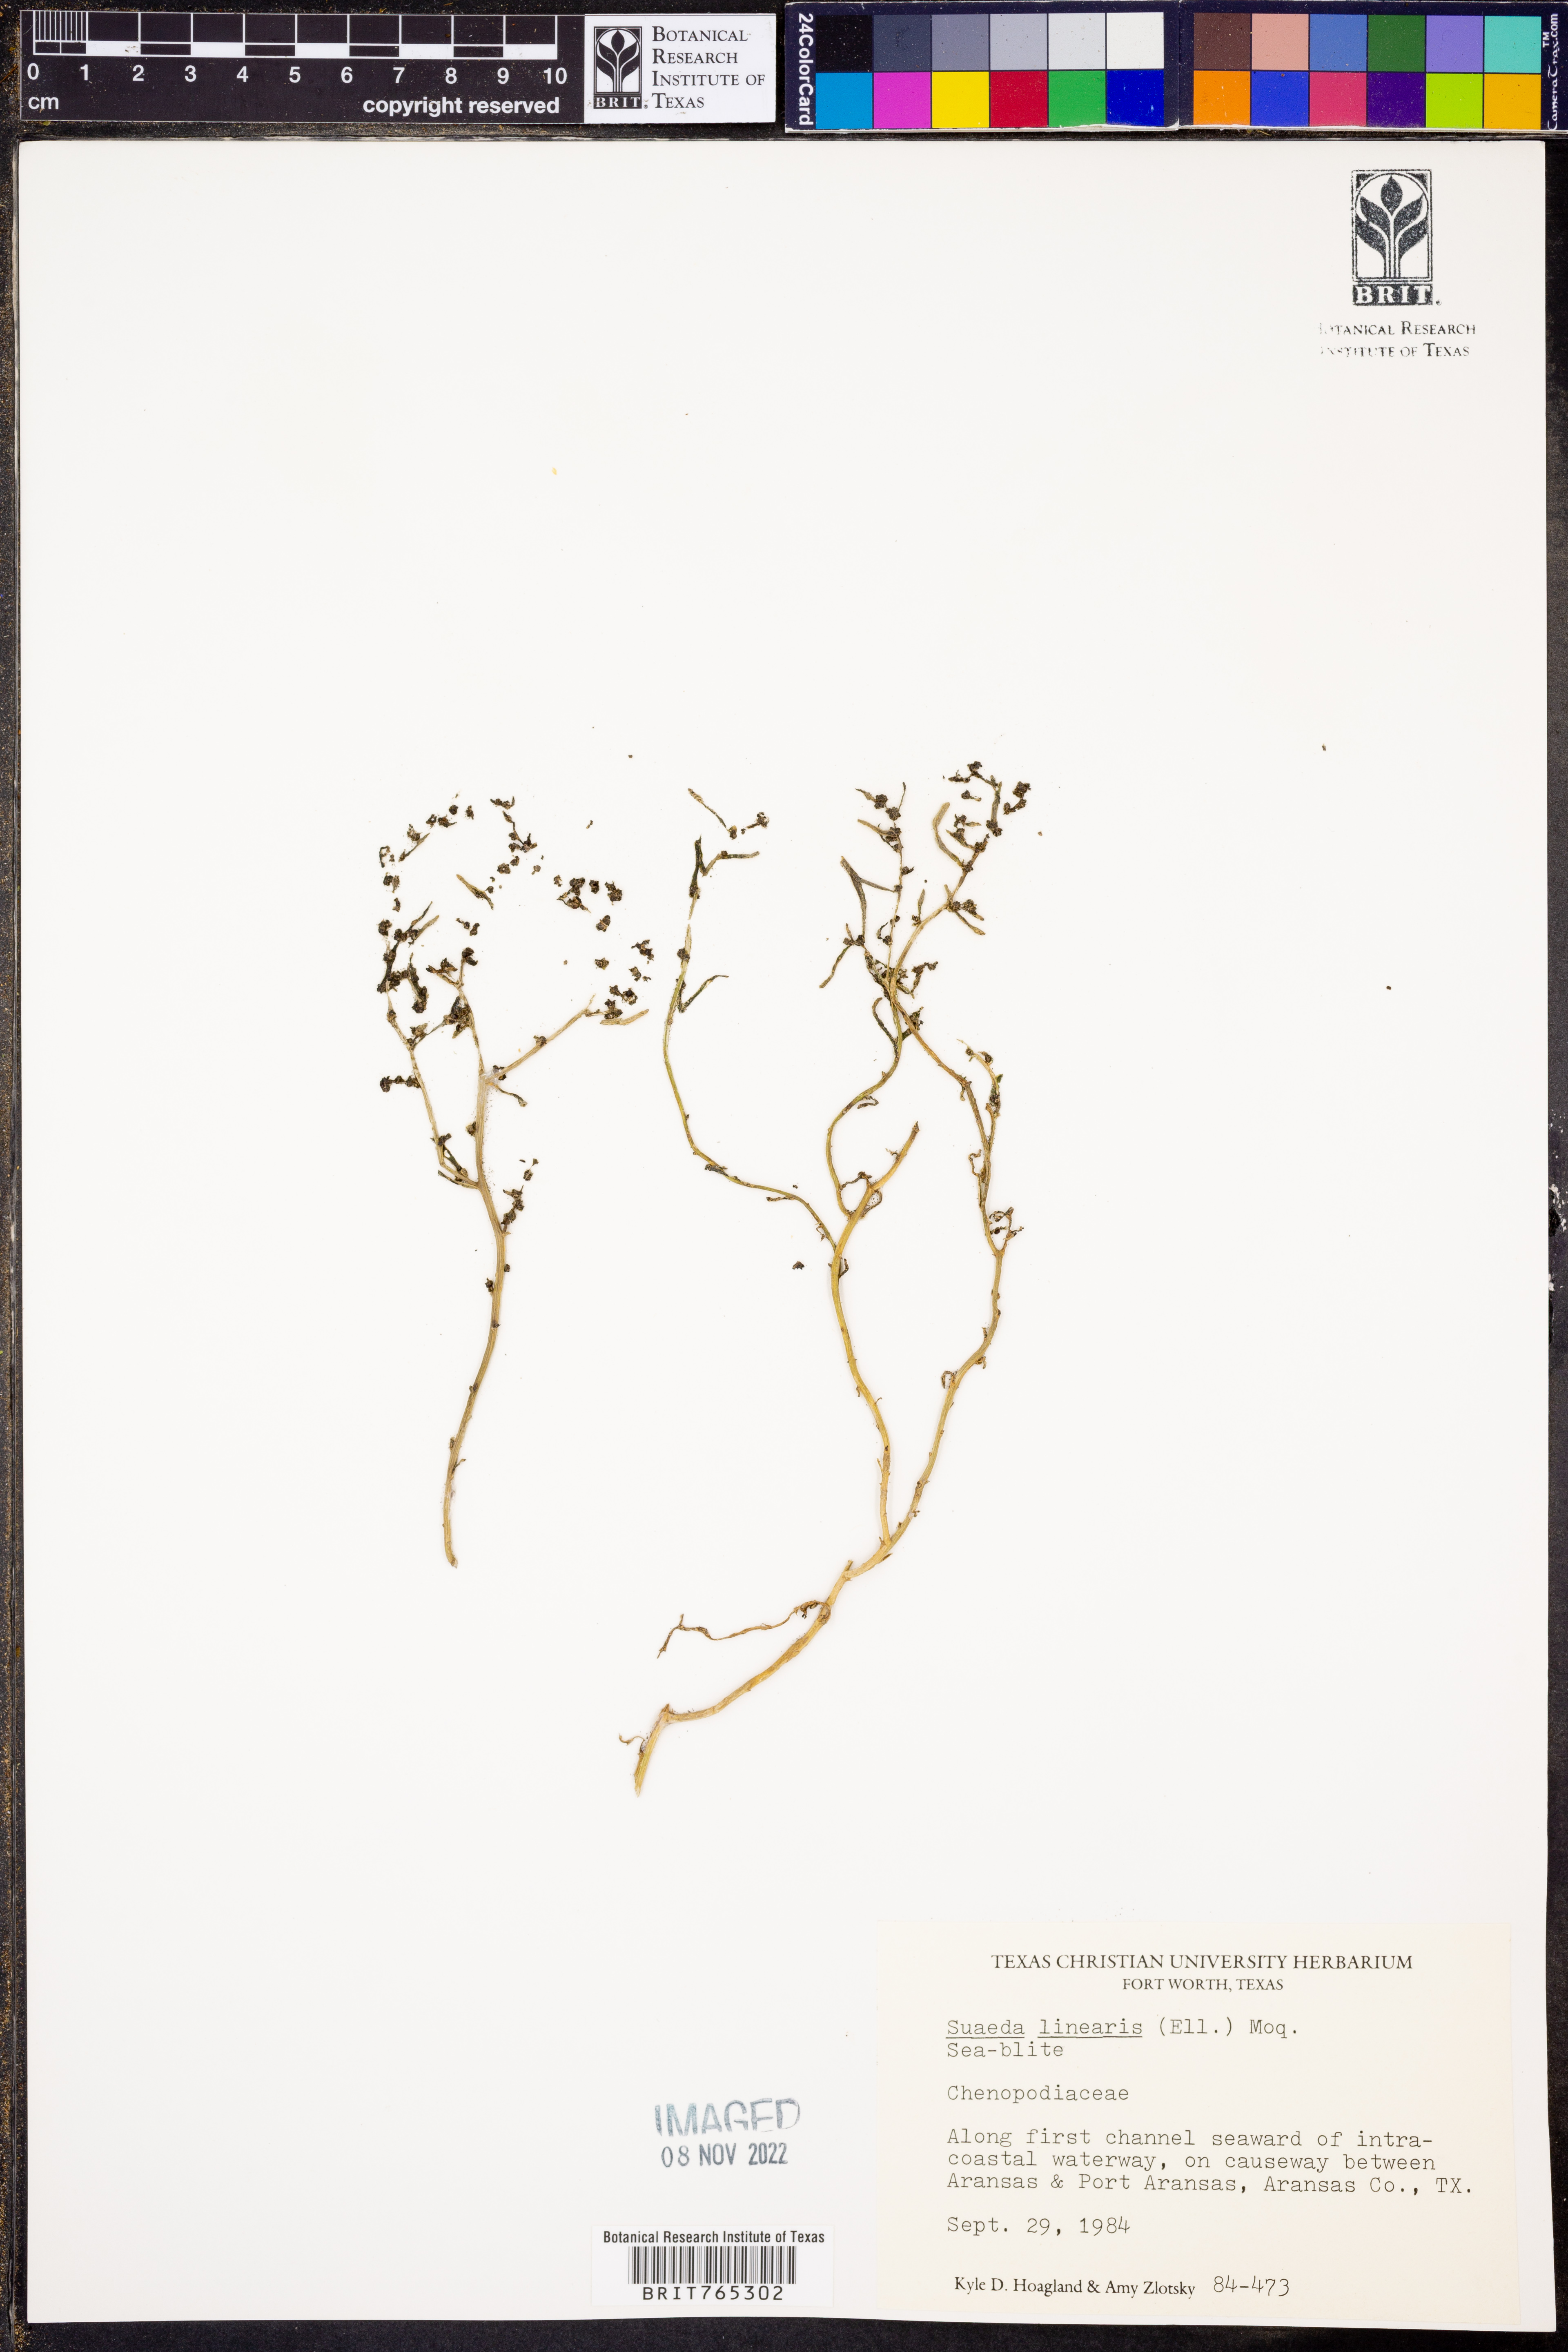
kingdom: Plantae
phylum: Tracheophyta
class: Magnoliopsida
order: Caryophyllales
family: Amaranthaceae
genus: Suaeda
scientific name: Suaeda linearis
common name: Annual seepweed
